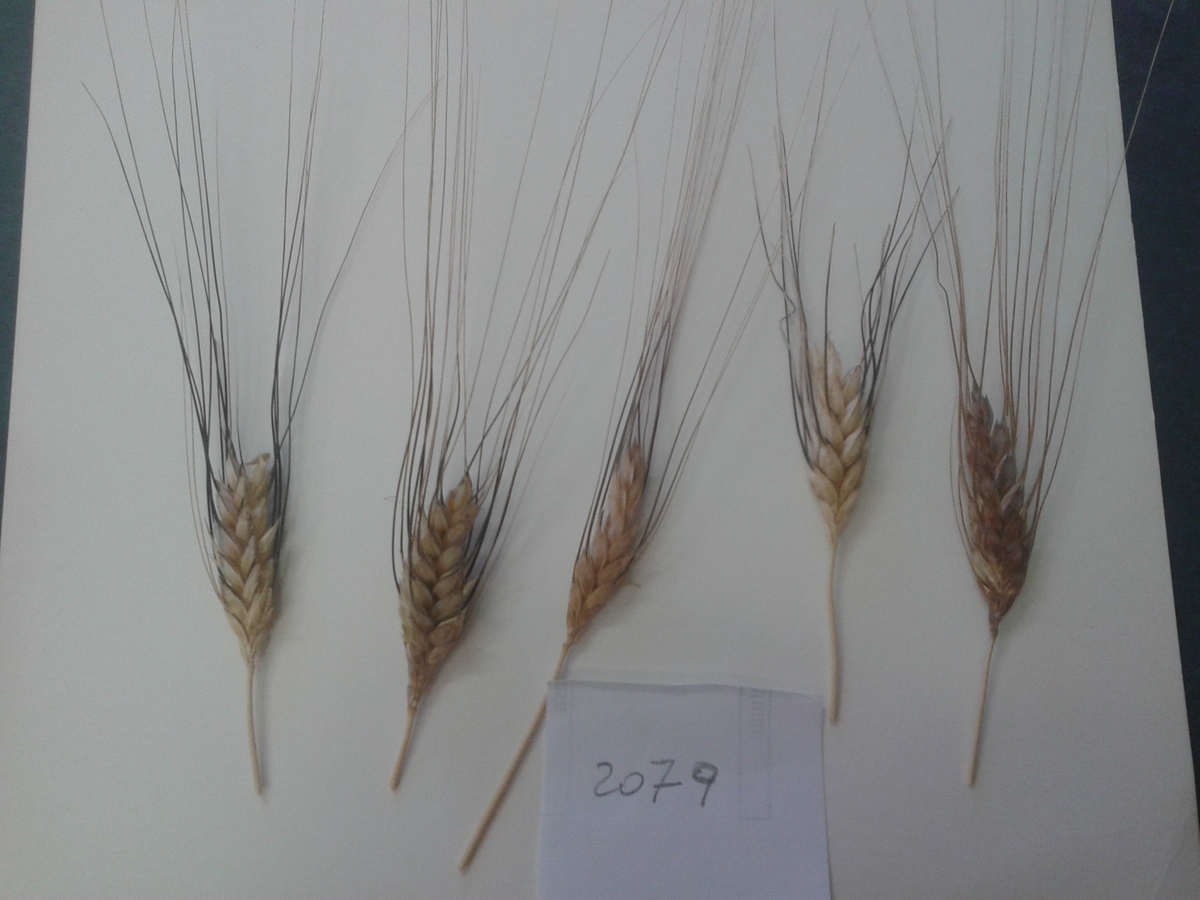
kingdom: Plantae
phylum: Tracheophyta
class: Liliopsida
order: Poales
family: Poaceae
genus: Triticum
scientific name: Triticum turgidum
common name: Wheat
